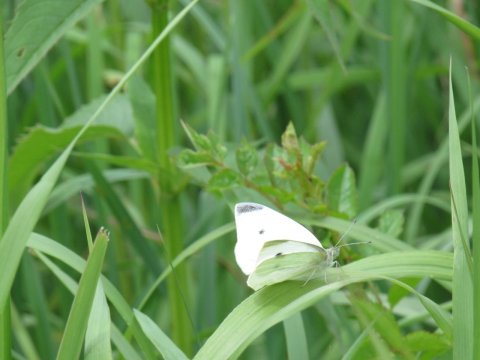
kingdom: Animalia
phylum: Arthropoda
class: Insecta
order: Lepidoptera
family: Pieridae
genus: Pieris
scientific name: Pieris rapae
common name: Cabbage White
